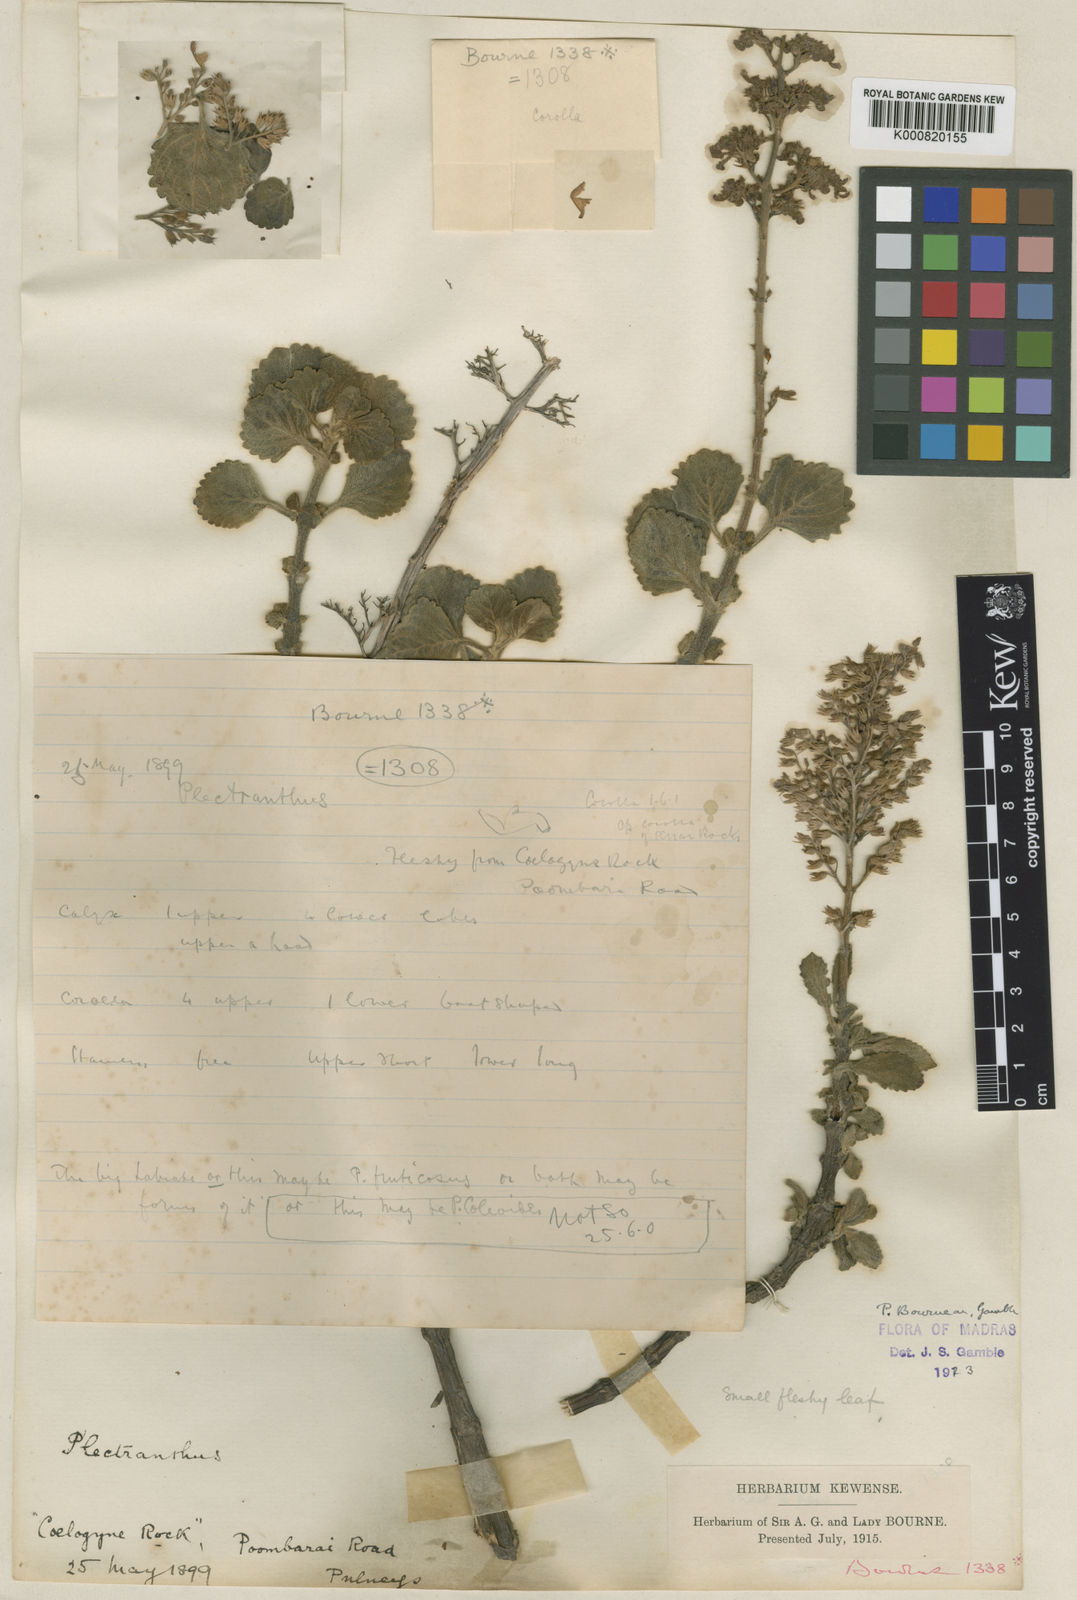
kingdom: Plantae
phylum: Tracheophyta
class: Magnoliopsida
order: Lamiales
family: Lamiaceae
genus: Coleus
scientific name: Coleus bourneae
